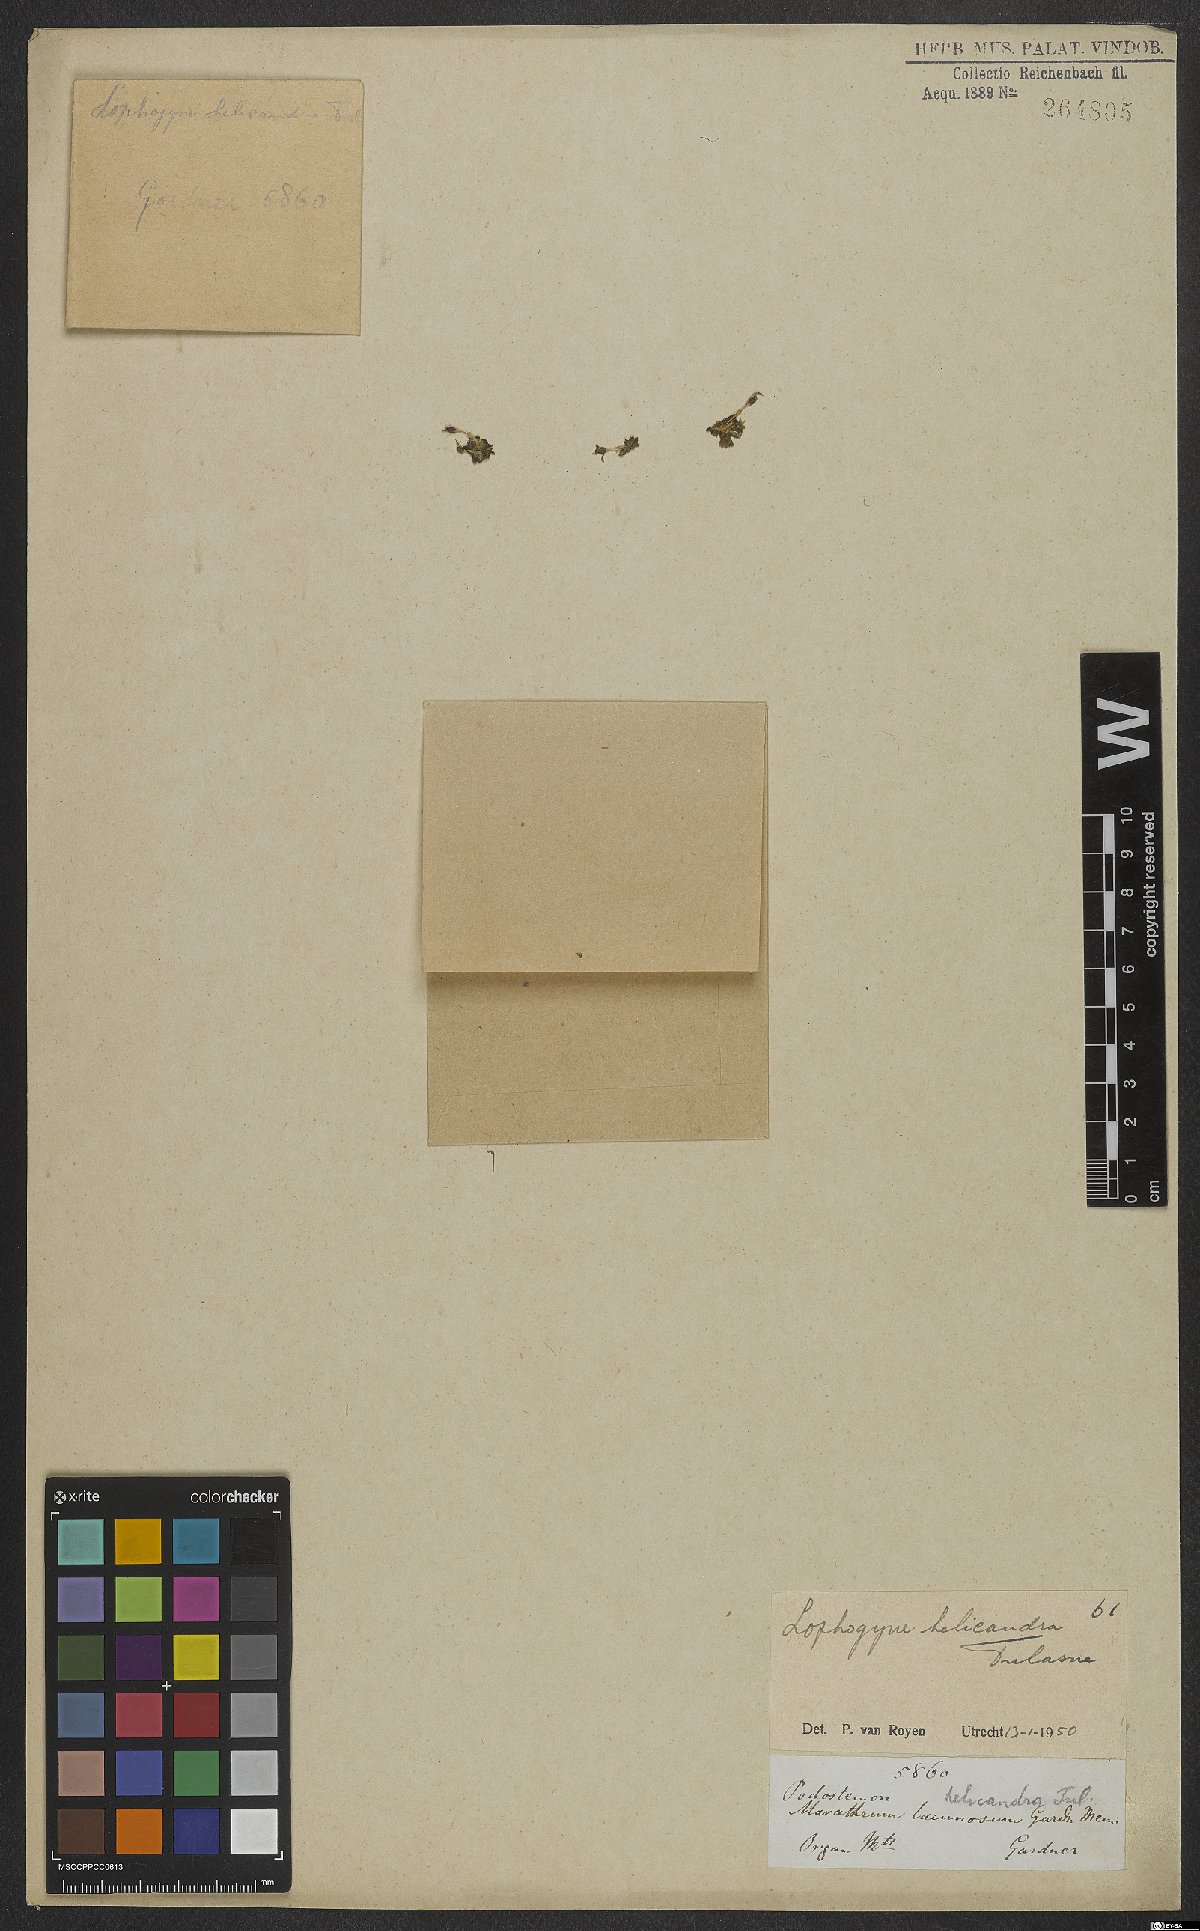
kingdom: Plantae
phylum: Tracheophyta
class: Magnoliopsida
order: Malpighiales
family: Podostemaceae
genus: Lophogyne
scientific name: Lophogyne helicandra
